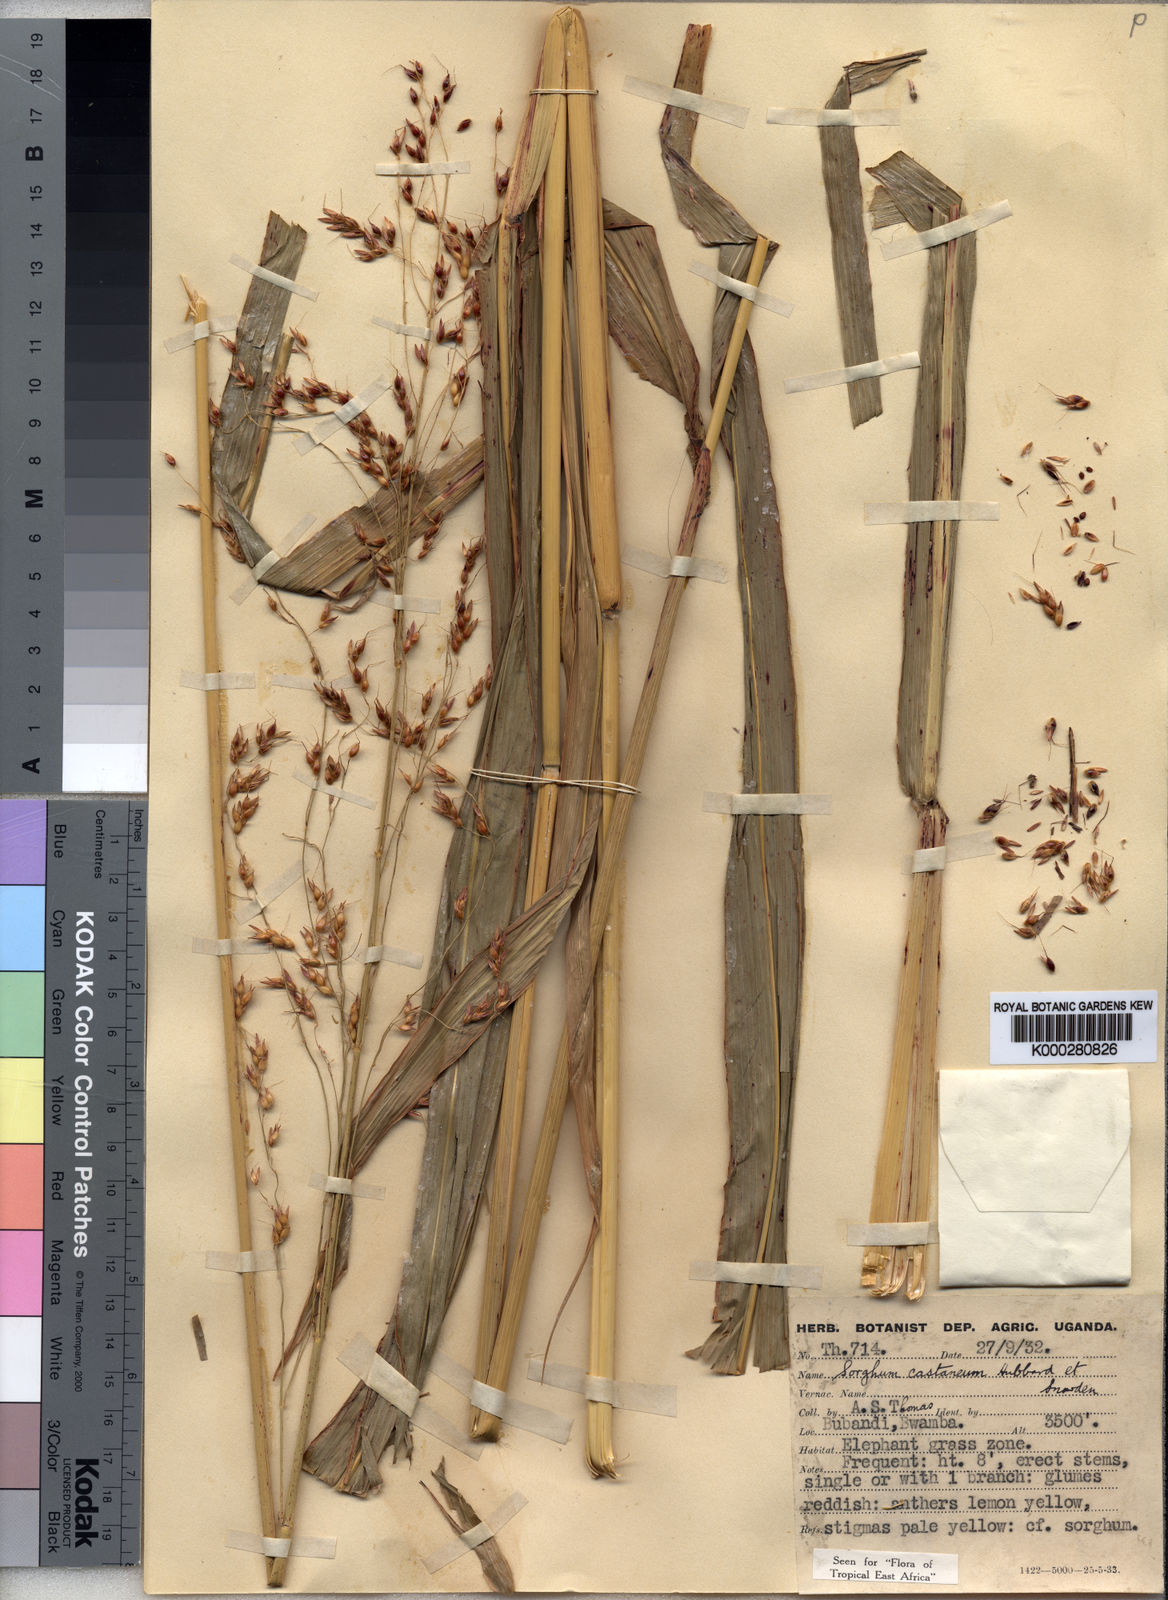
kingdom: Plantae
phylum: Tracheophyta
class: Liliopsida
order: Poales
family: Poaceae
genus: Sorghum
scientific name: Sorghum arundinaceum
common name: Sorghum
